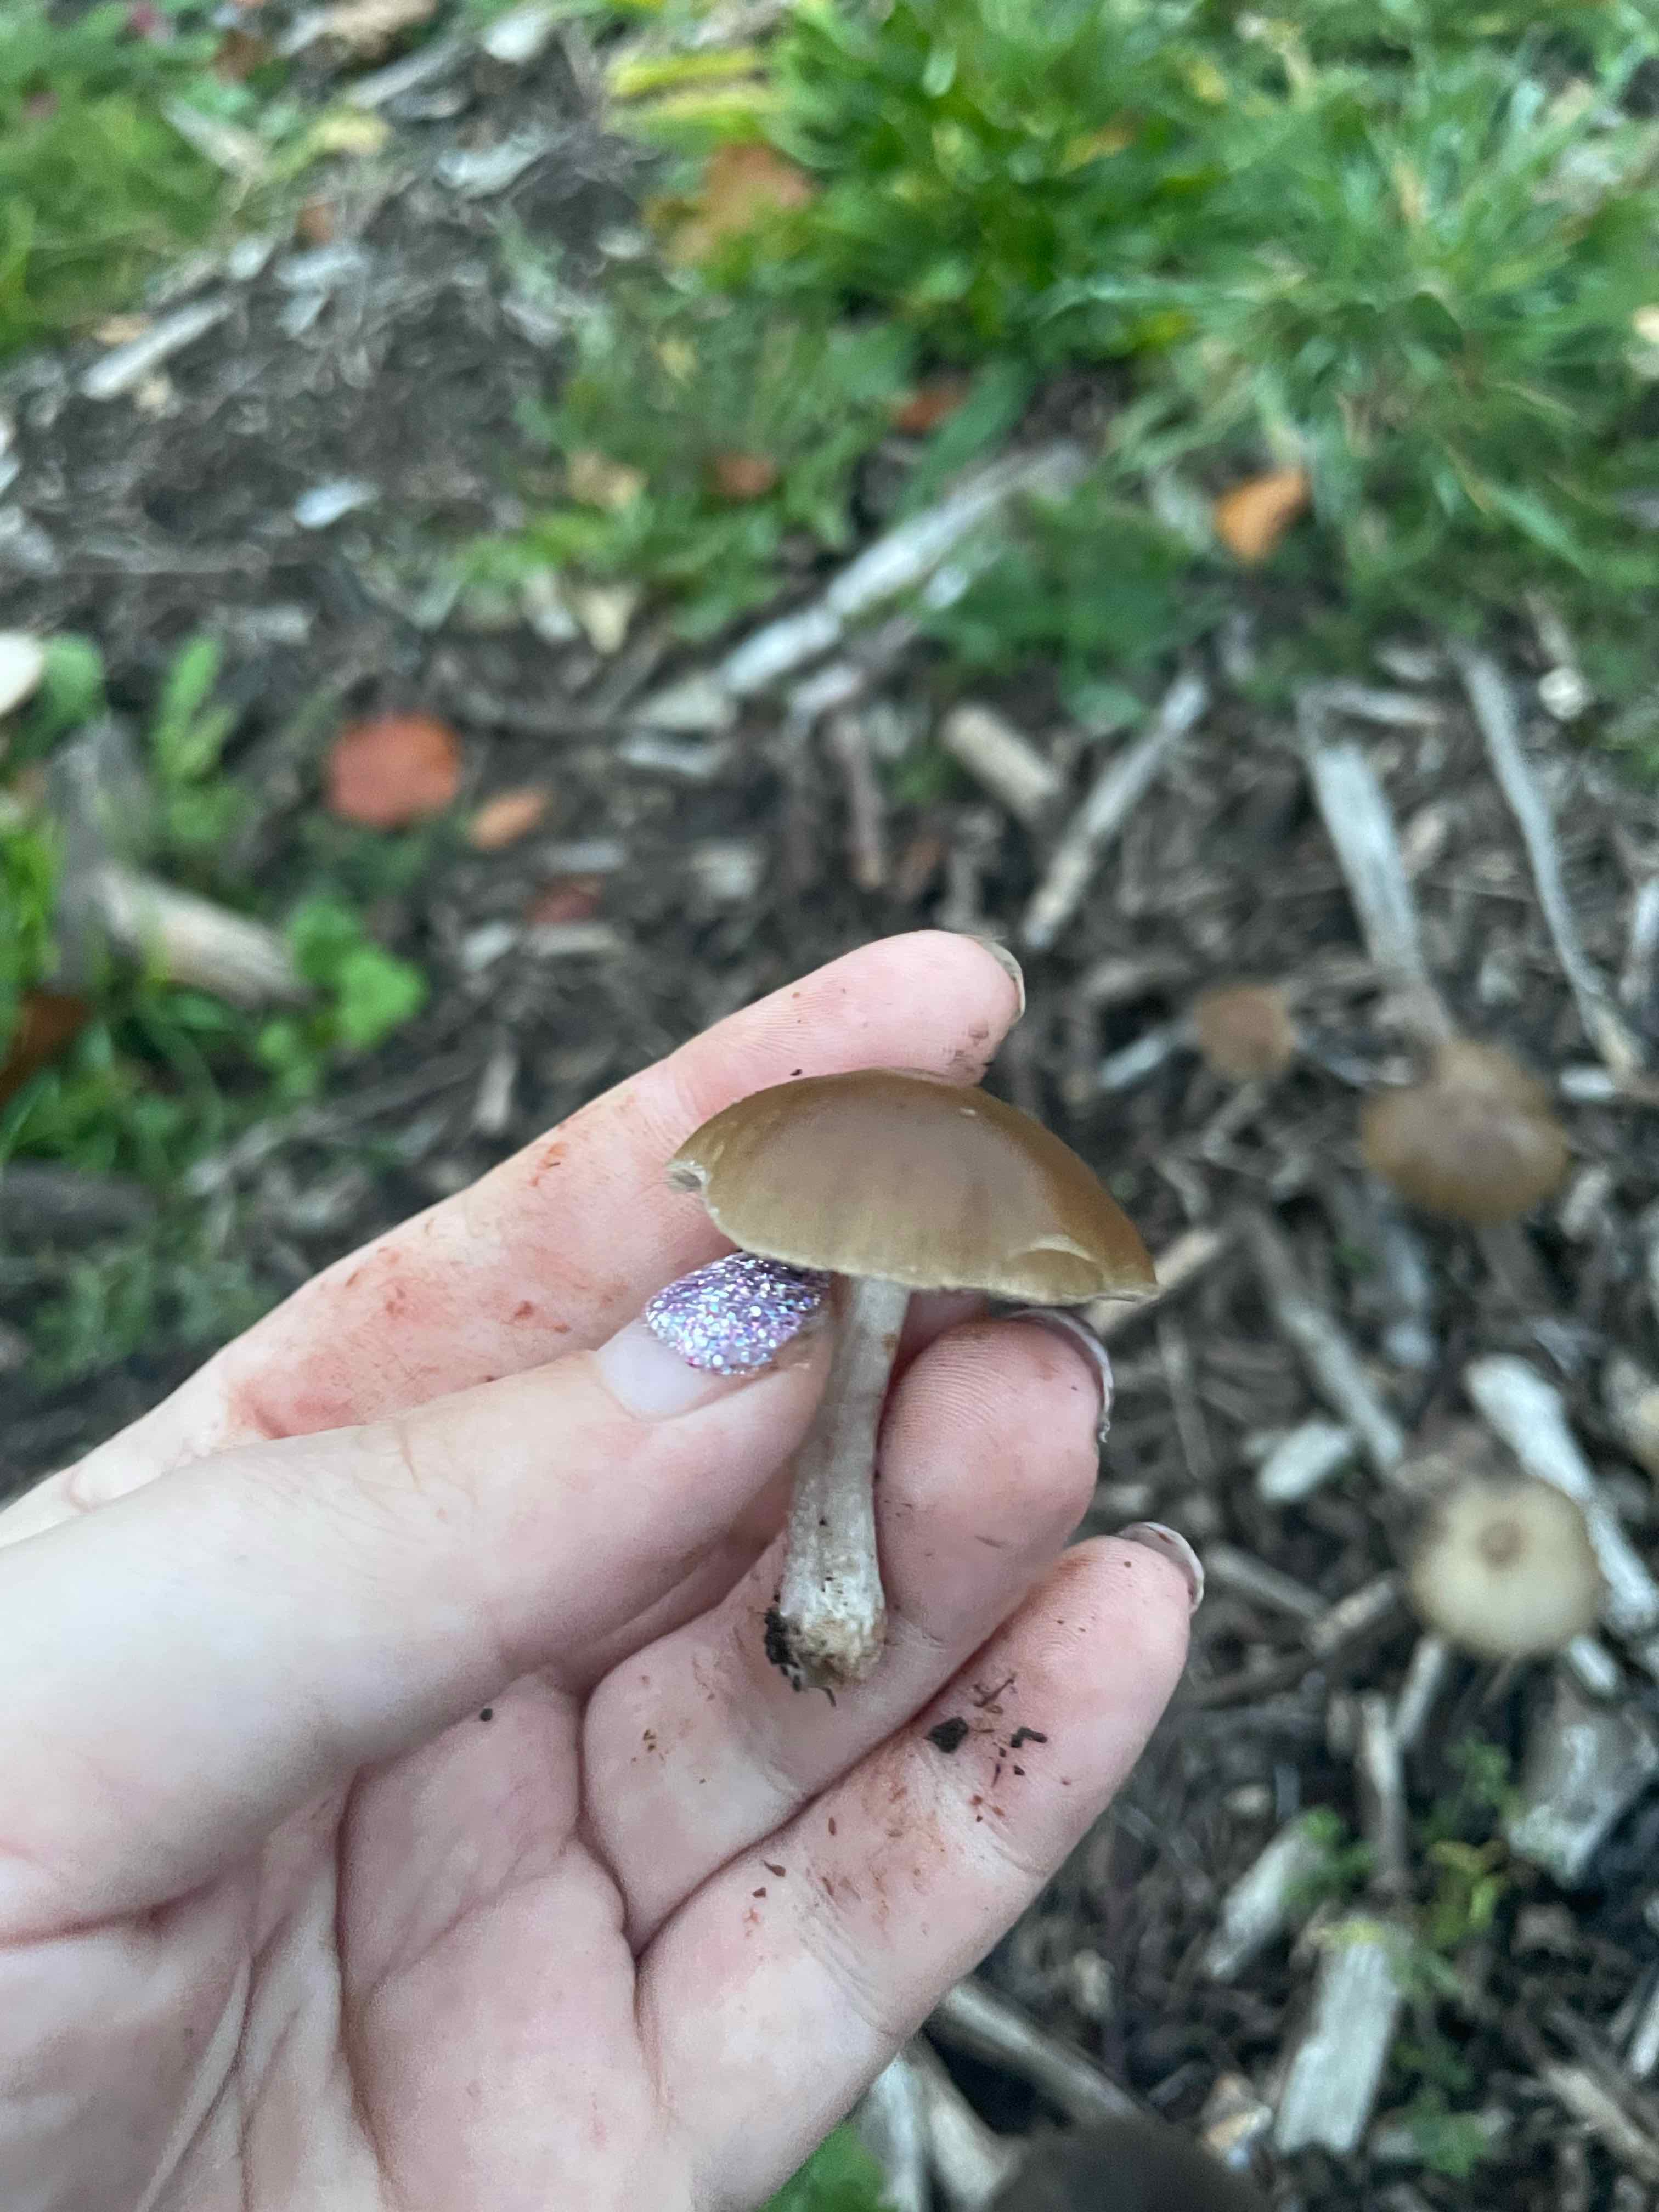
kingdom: Fungi
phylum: Basidiomycota
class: Agaricomycetes
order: Agaricales
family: Psathyrellaceae
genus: Psathyrella
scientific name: Psathyrella
